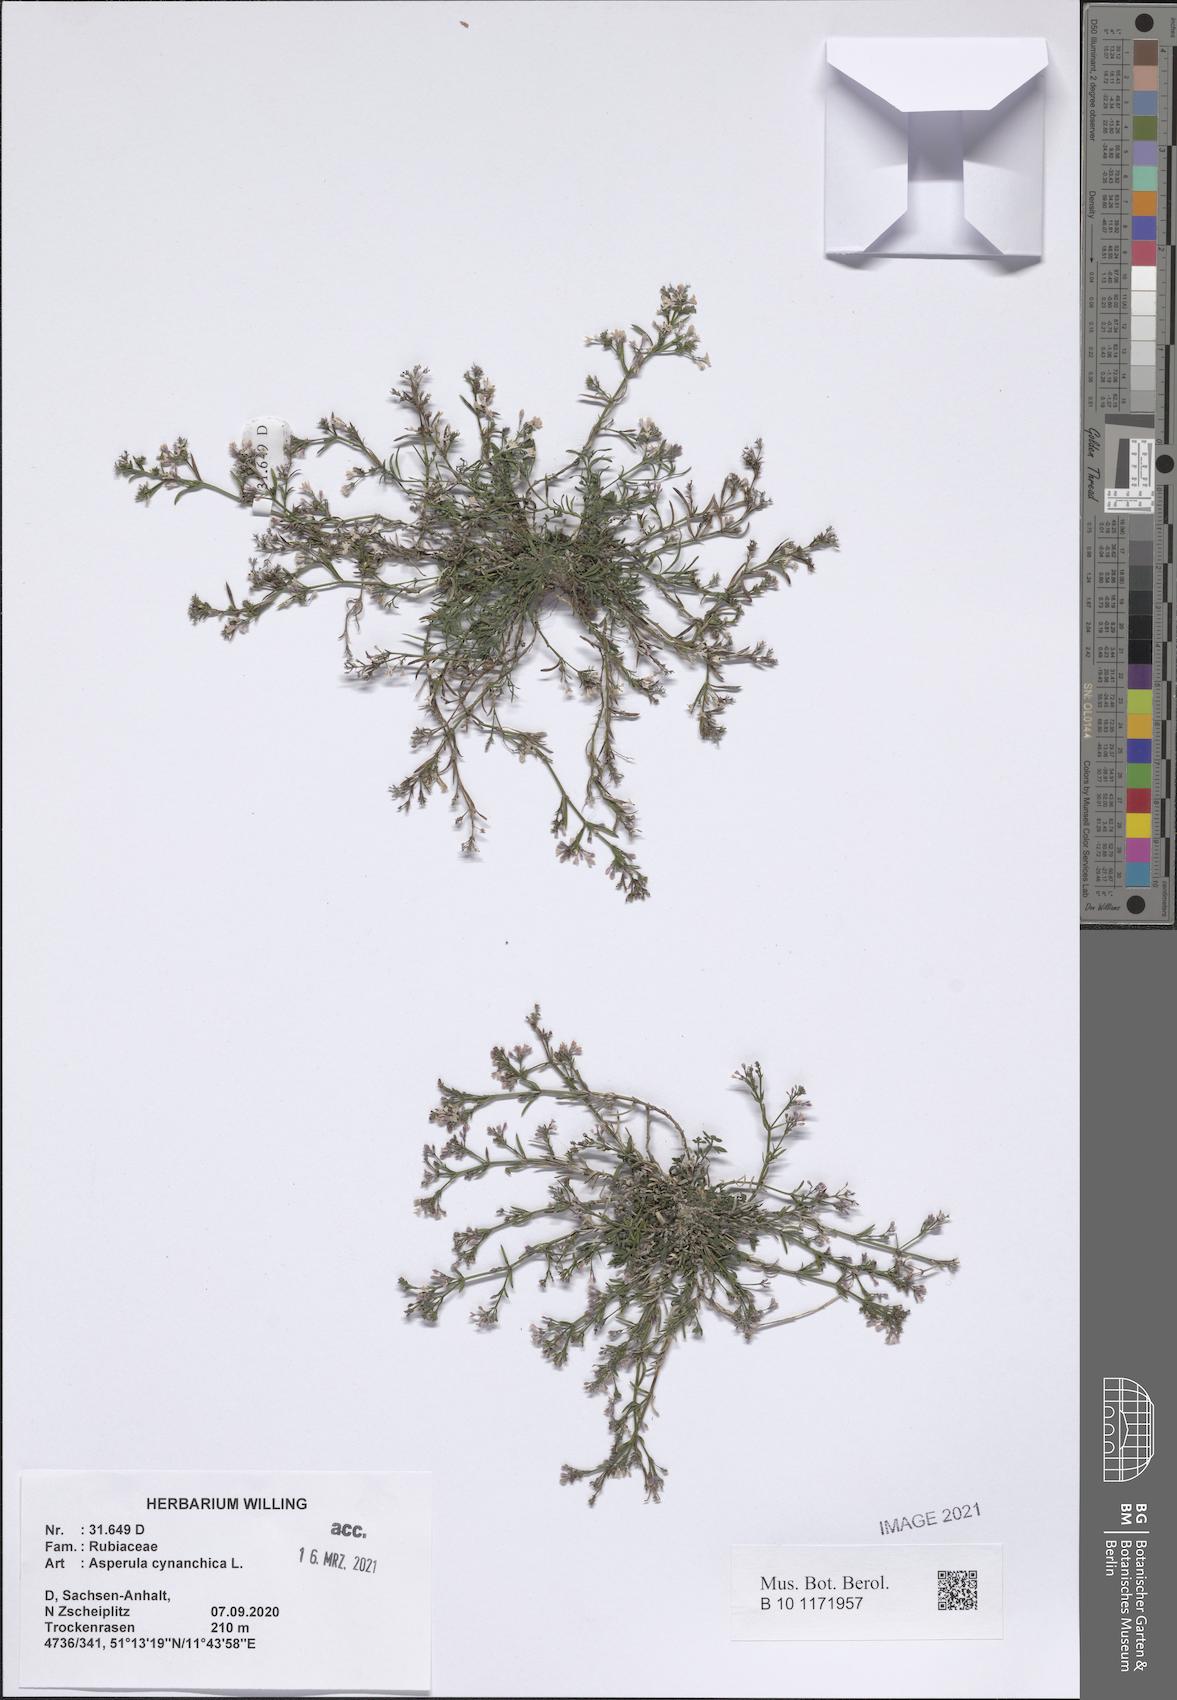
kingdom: Plantae
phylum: Tracheophyta
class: Magnoliopsida
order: Gentianales
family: Rubiaceae
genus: Cynanchica
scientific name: Cynanchica pyrenaica
